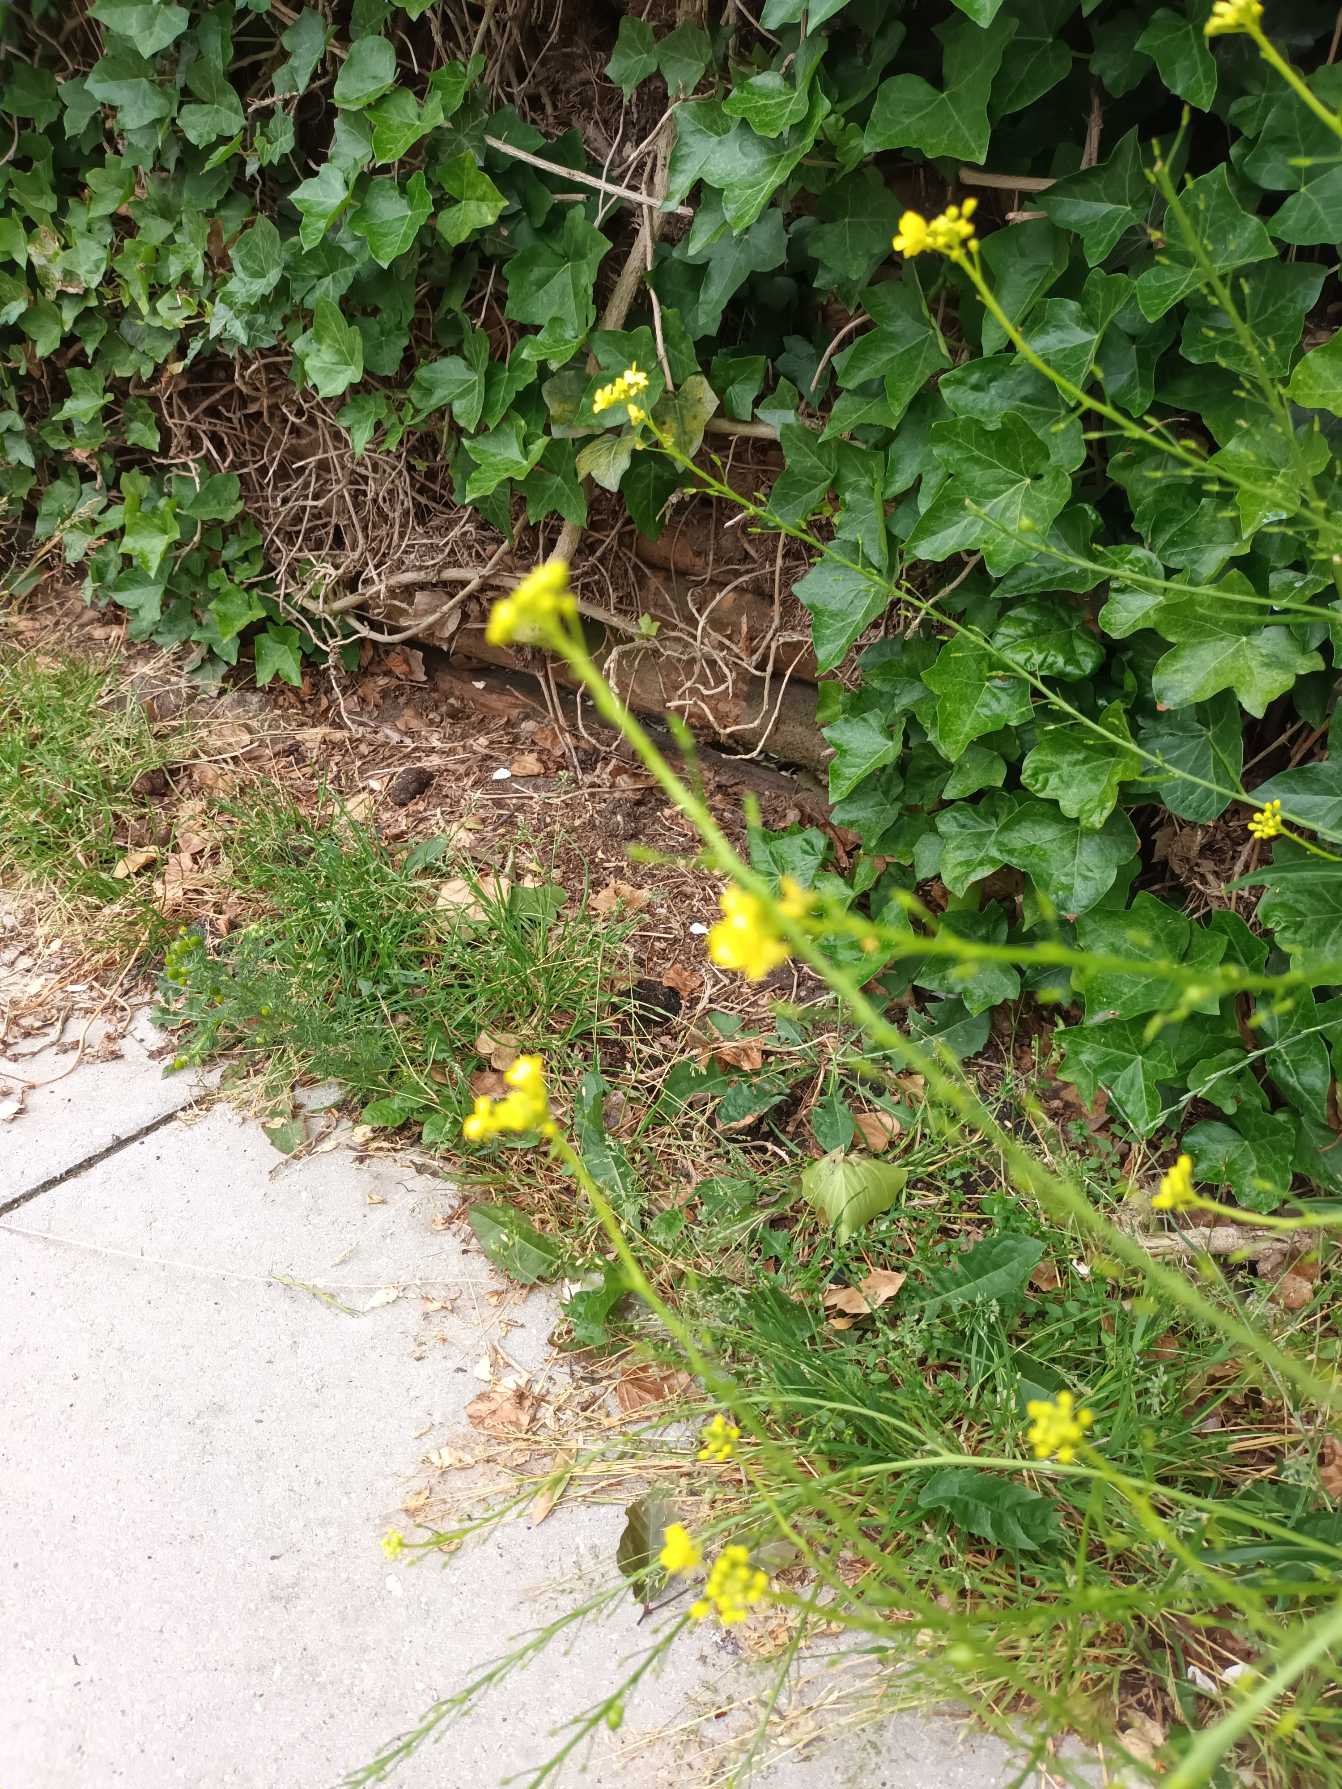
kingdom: Plantae
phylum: Tracheophyta
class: Magnoliopsida
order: Brassicales
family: Brassicaceae
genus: Bunias
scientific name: Bunias orientalis
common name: Takkeklap
